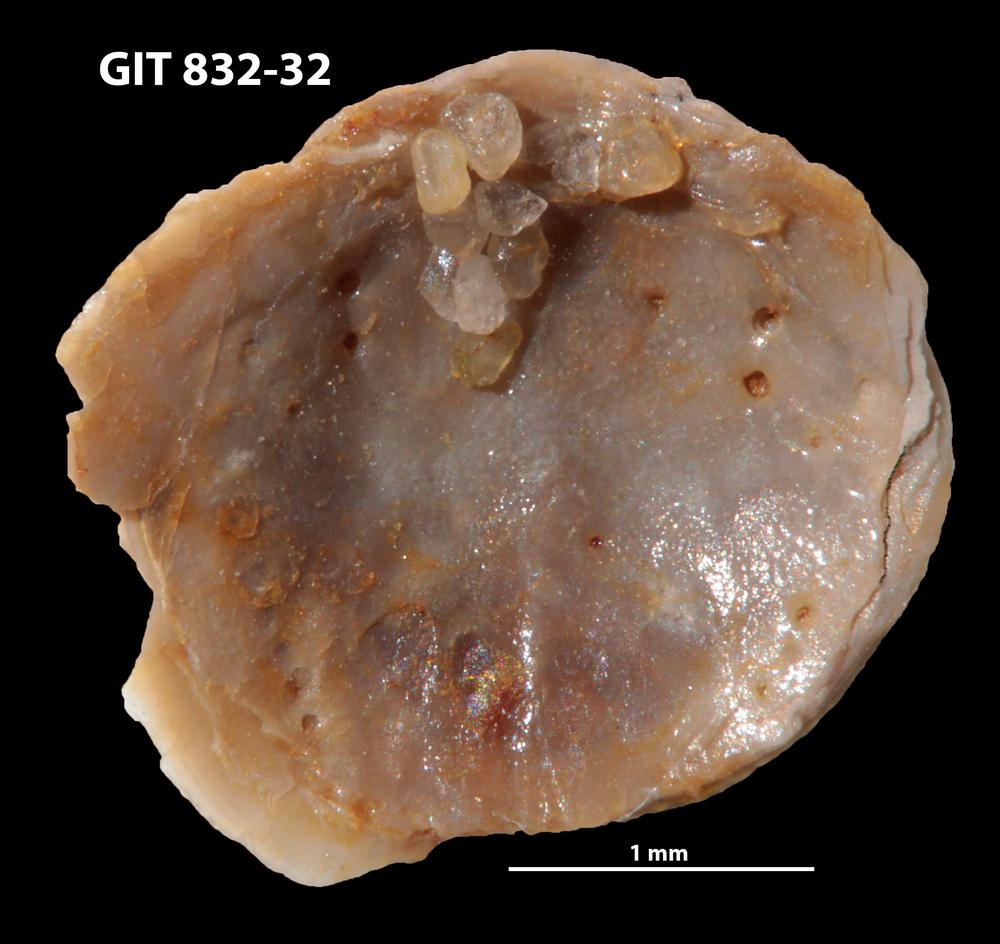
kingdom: Animalia
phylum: Brachiopoda
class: Lingulata
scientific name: Lingulata
